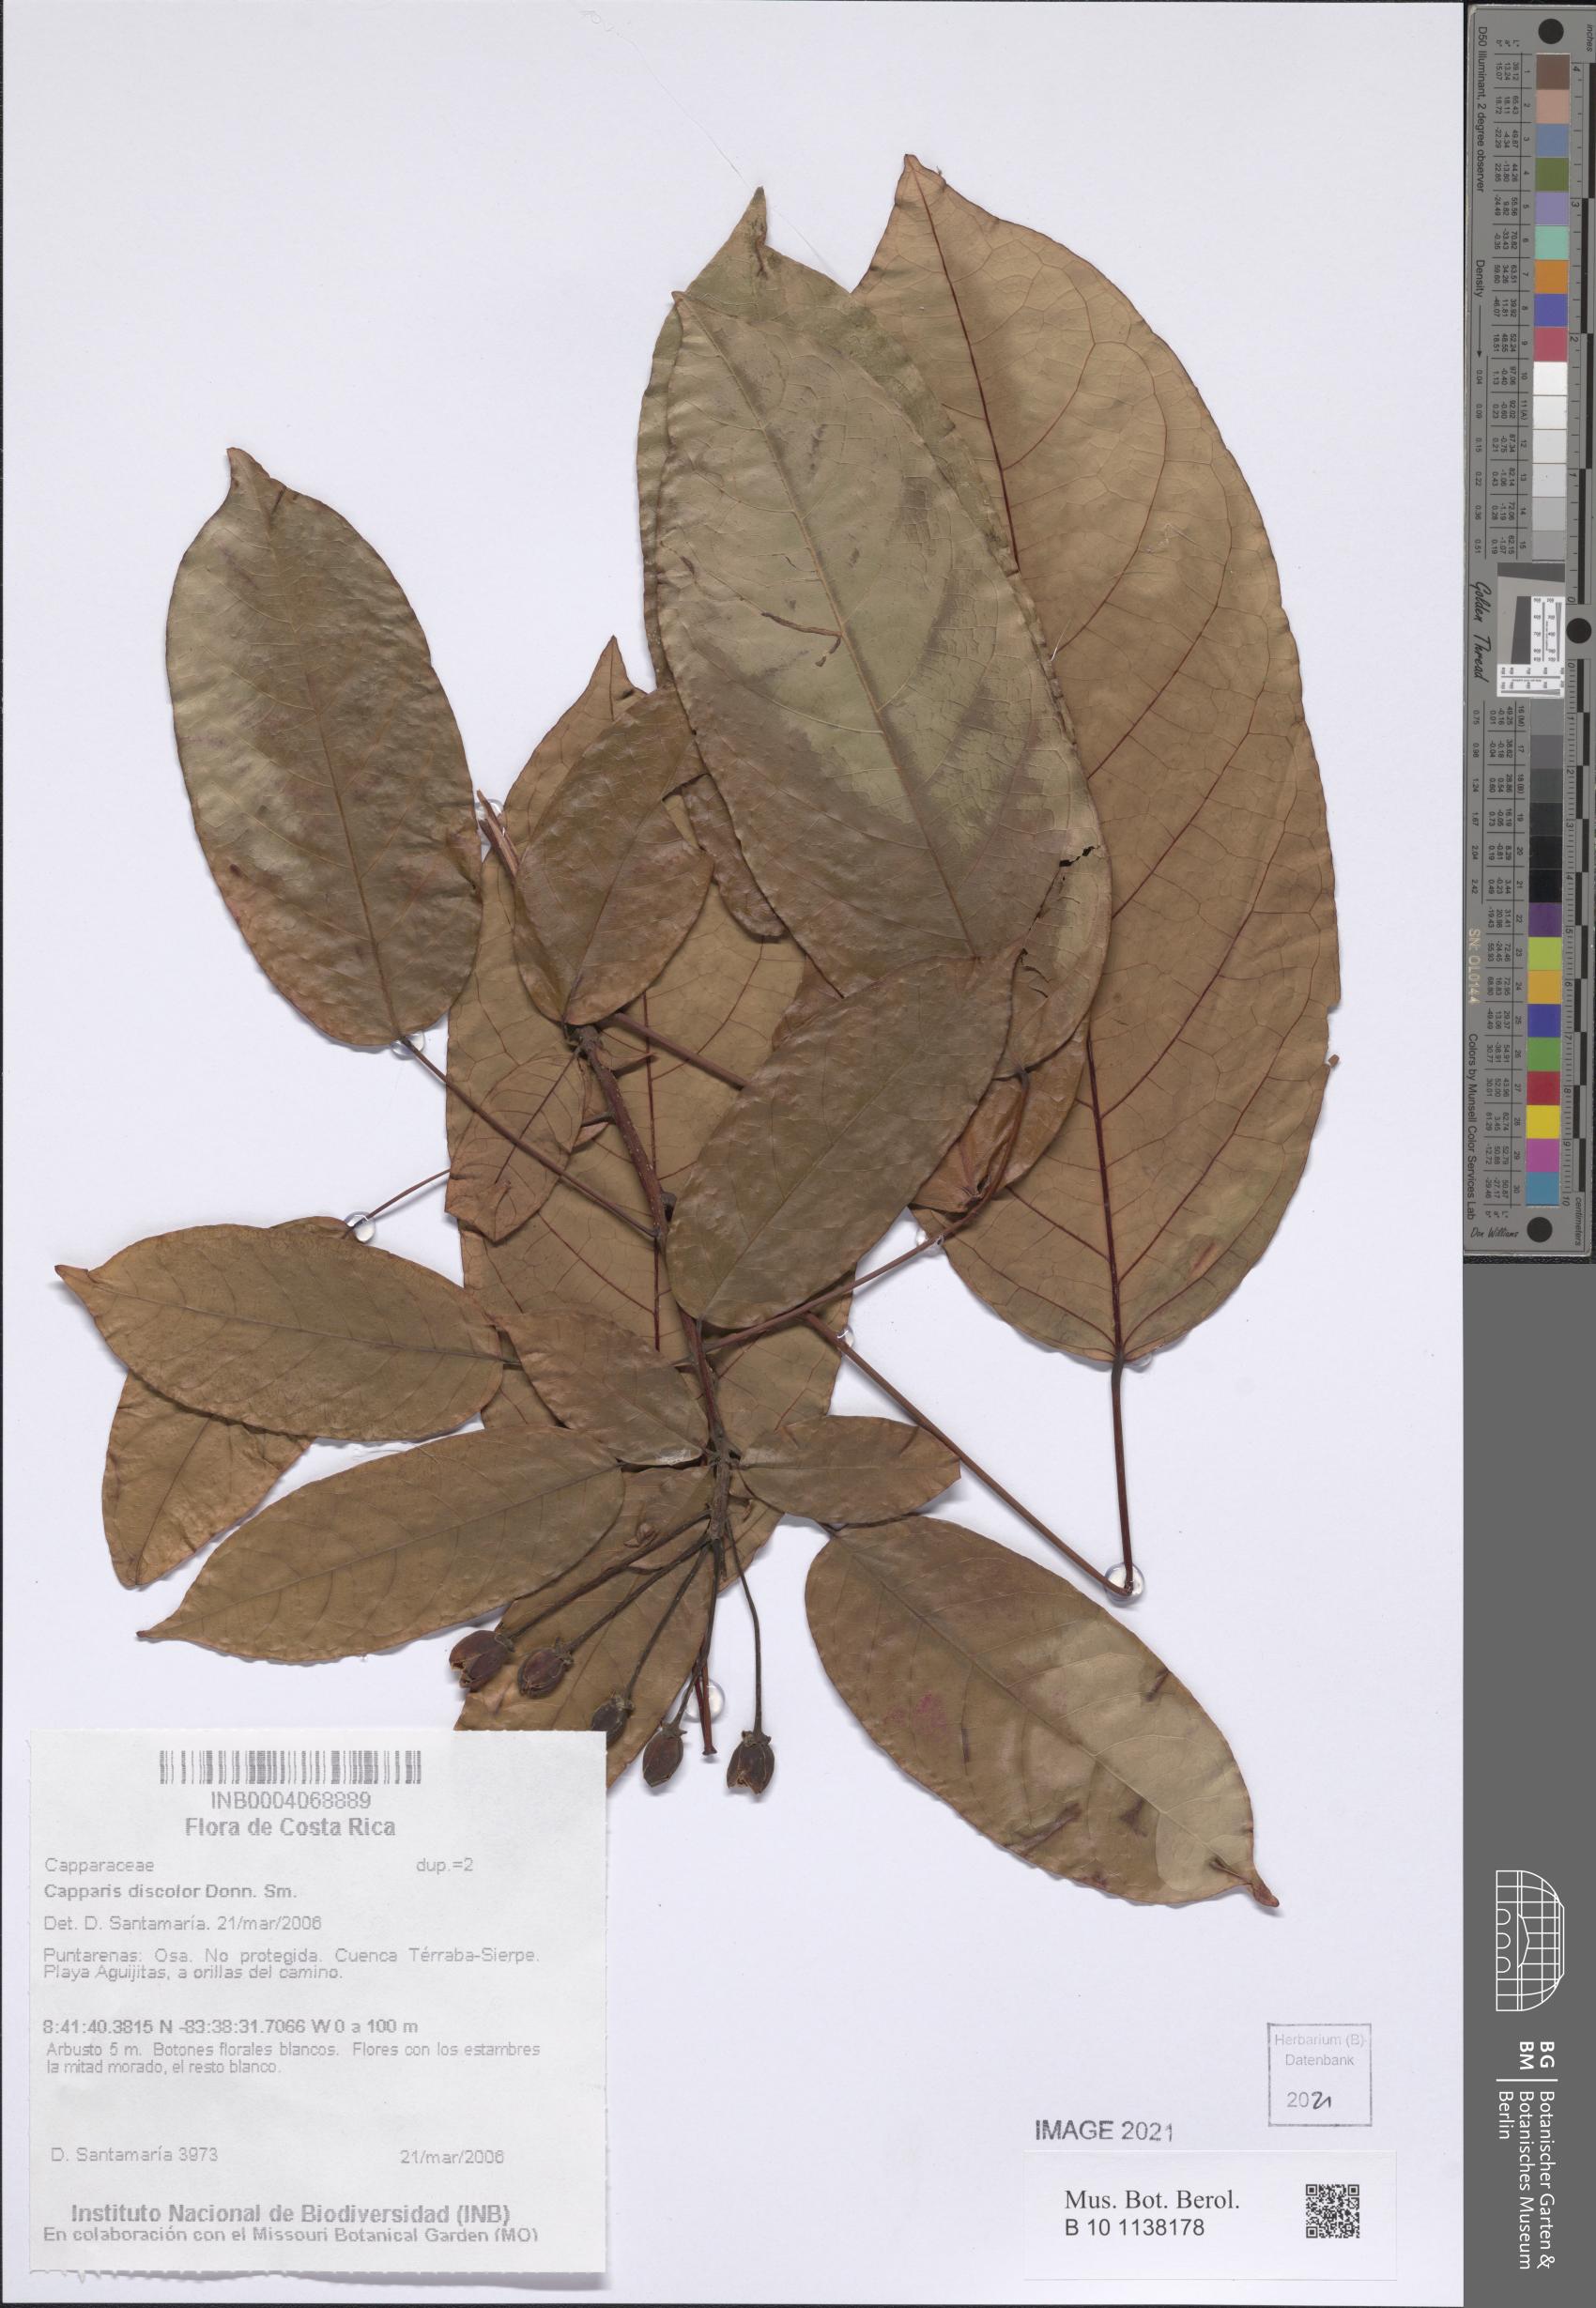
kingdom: Plantae
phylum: Tracheophyta
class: Magnoliopsida
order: Brassicales
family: Capparaceae
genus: Capparidastrum
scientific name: Capparidastrum discolor
